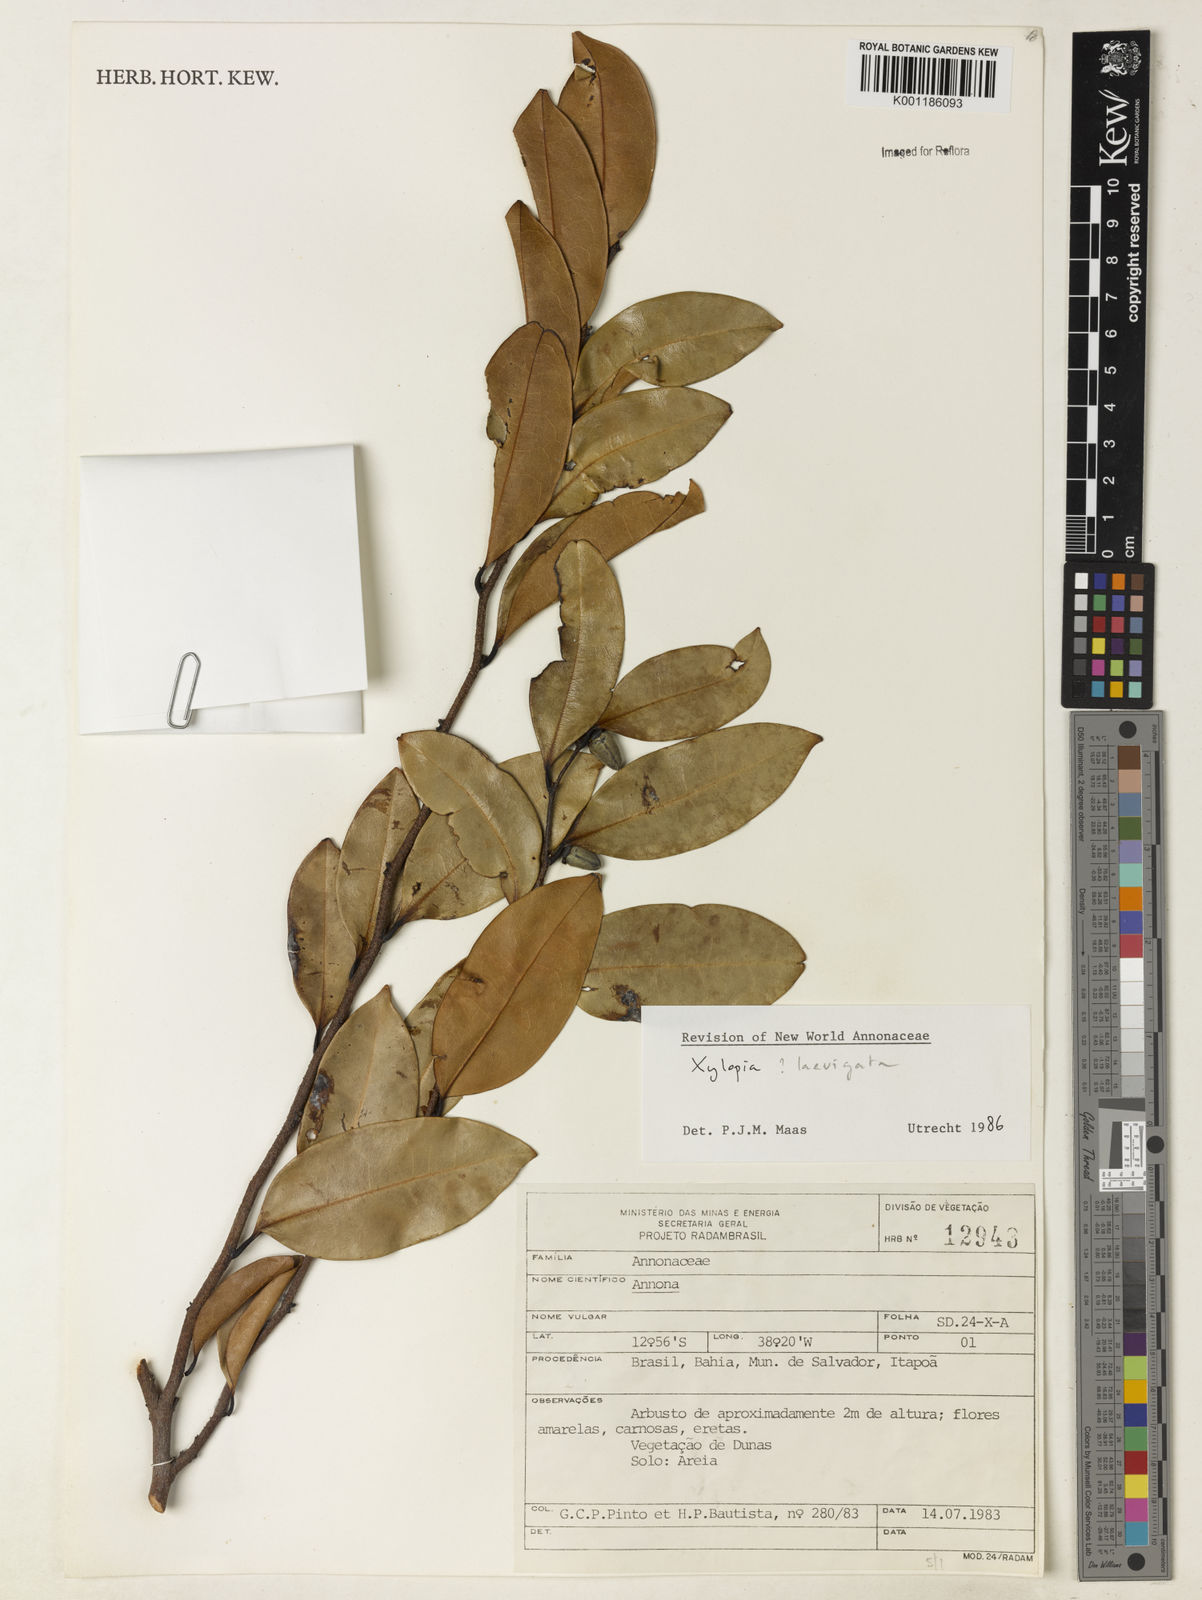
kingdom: Plantae
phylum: Tracheophyta
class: Magnoliopsida
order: Magnoliales
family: Annonaceae
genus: Xylopia
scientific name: Xylopia laevigata
